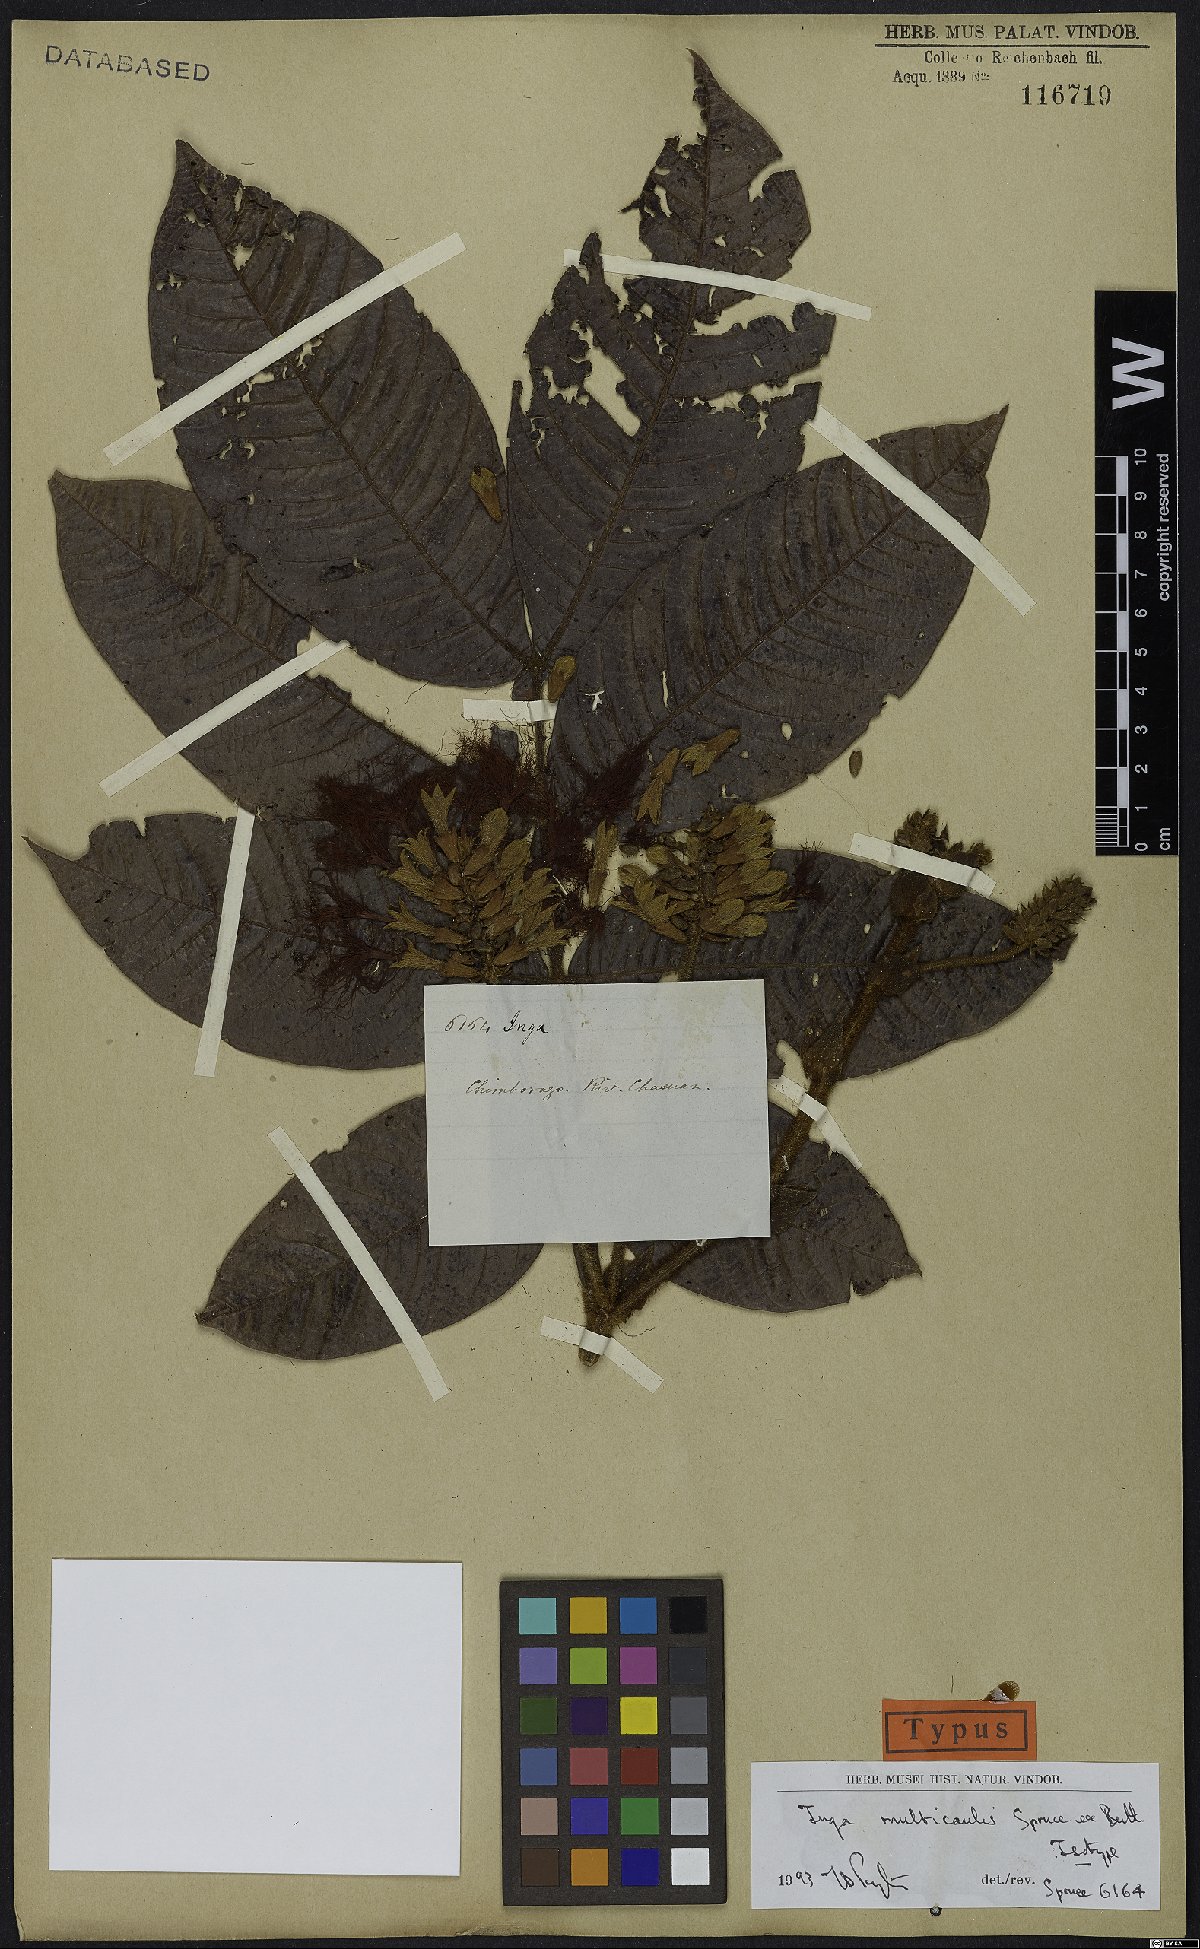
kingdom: Plantae
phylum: Tracheophyta
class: Magnoliopsida
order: Fabales
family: Fabaceae
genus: Inga
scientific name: Inga multicaulis
